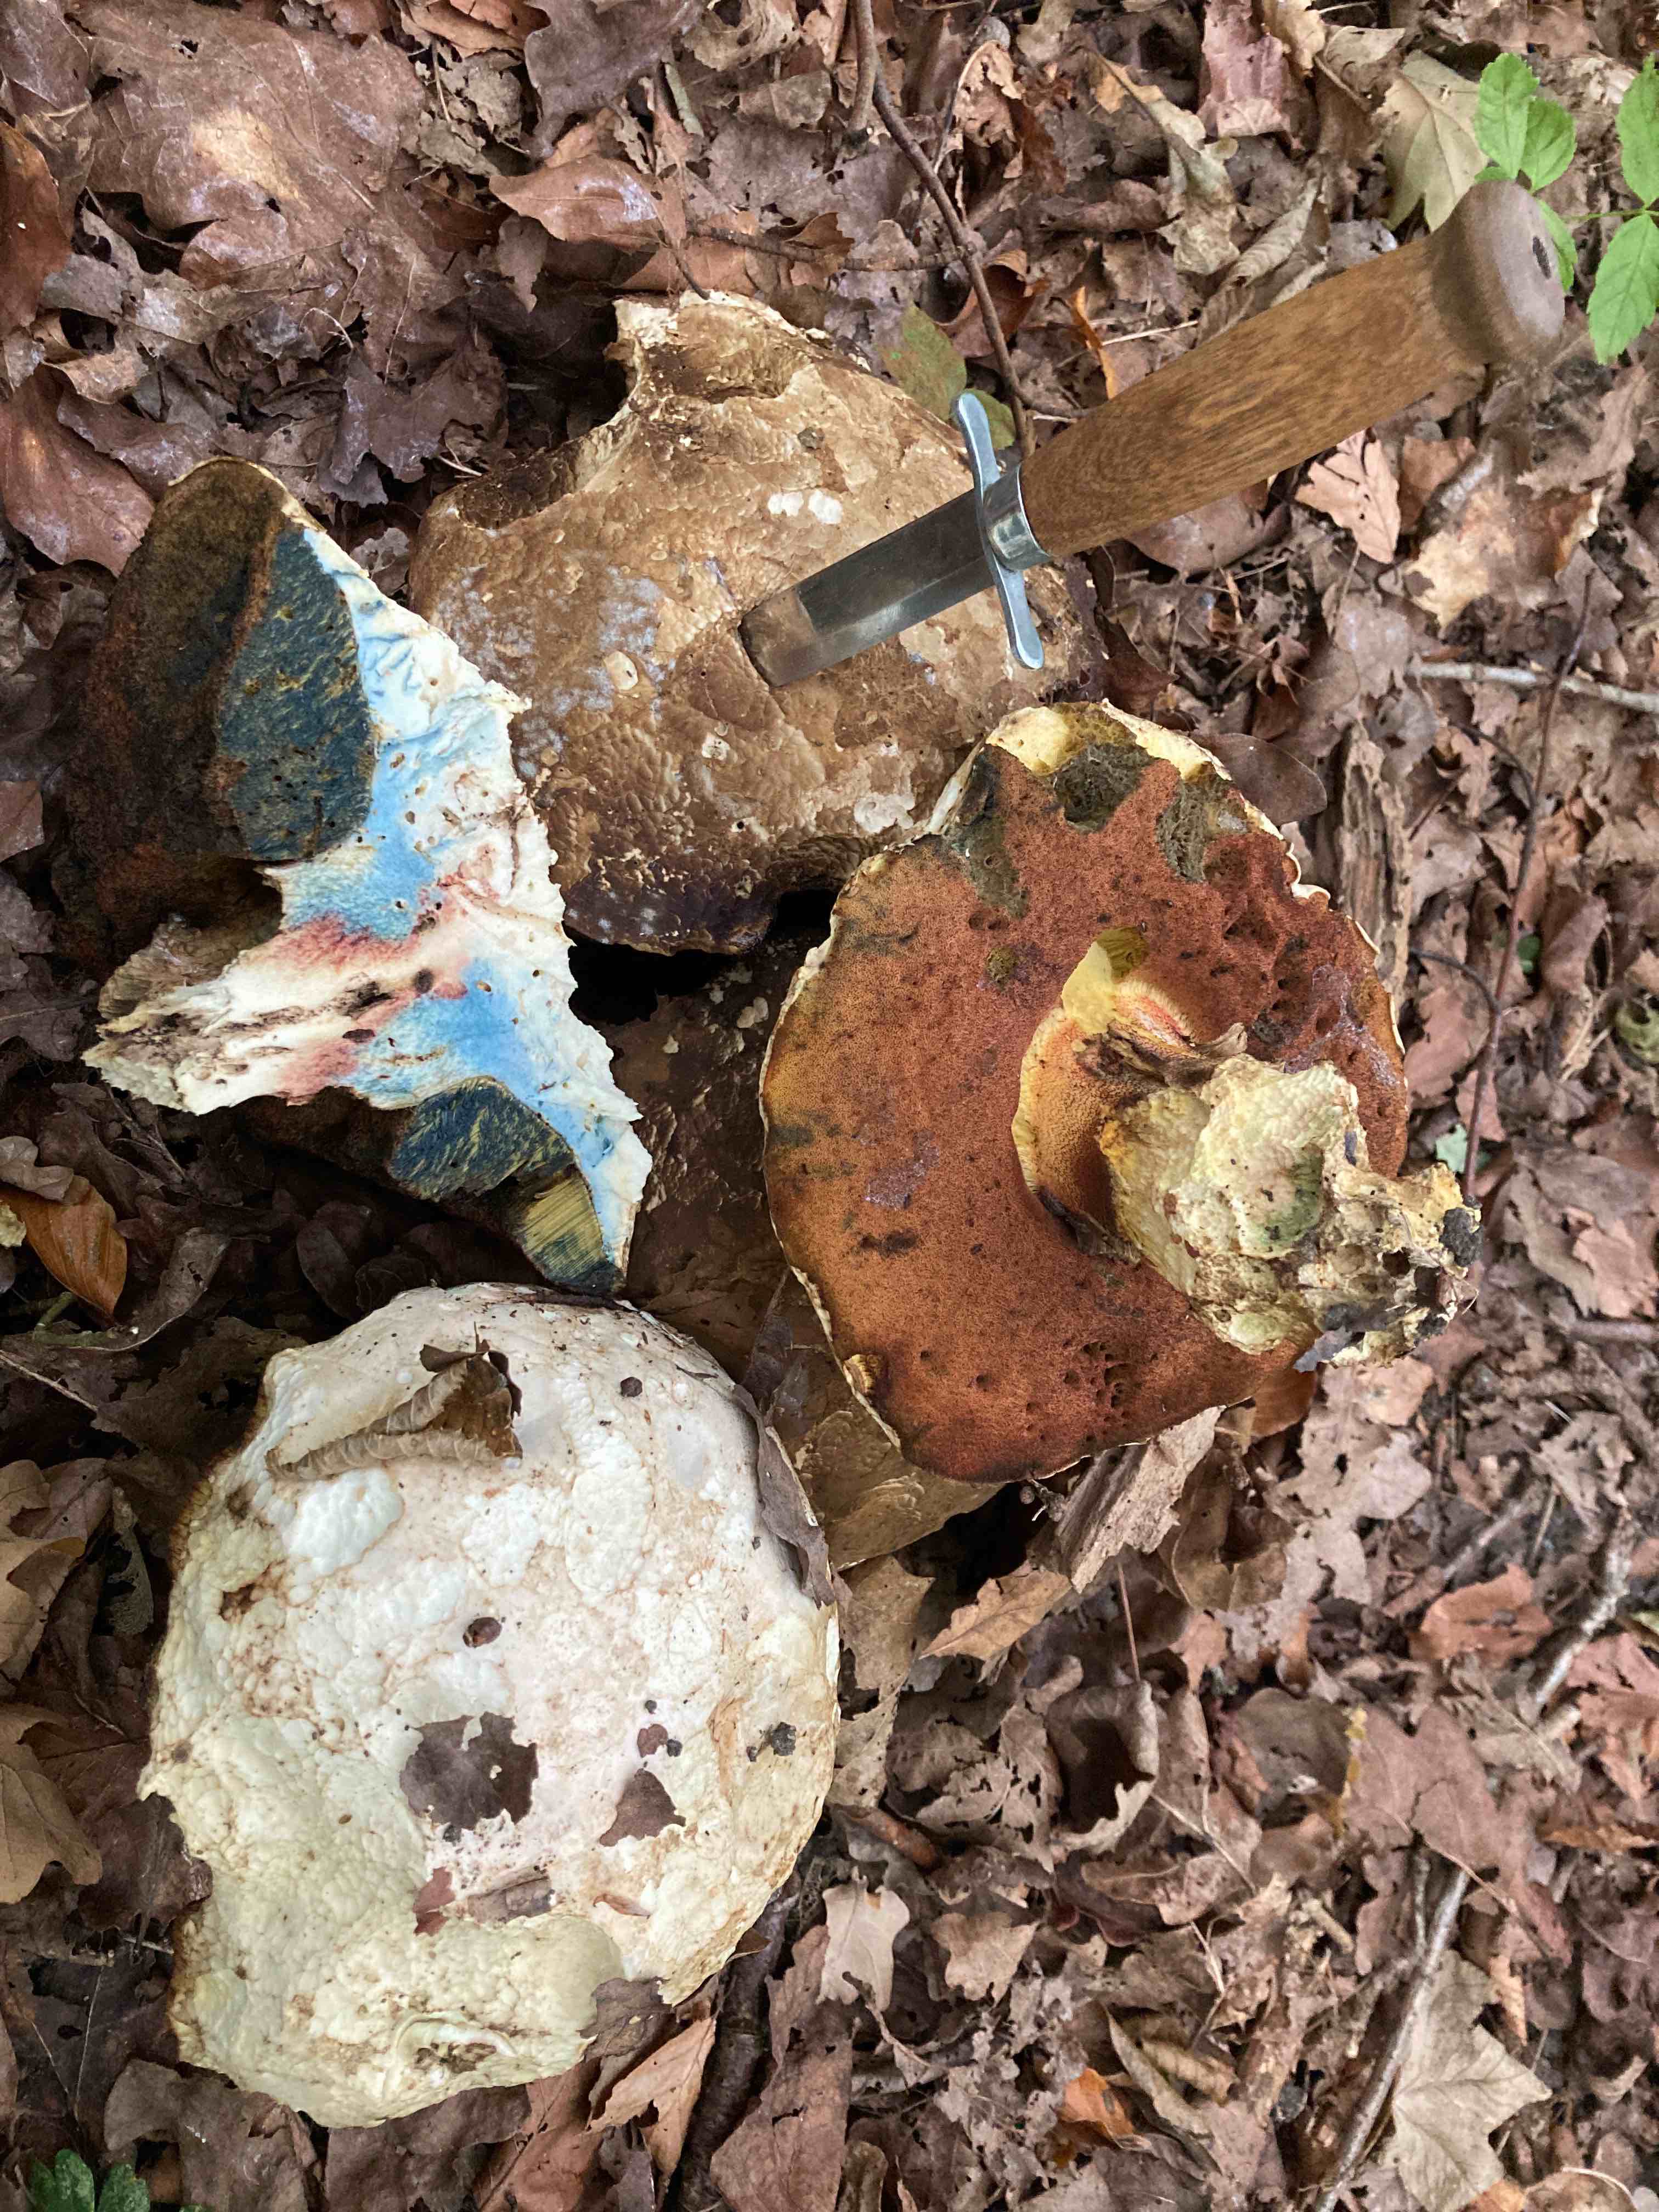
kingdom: Fungi
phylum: Basidiomycota
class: Agaricomycetes
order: Boletales
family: Boletaceae
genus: Rubroboletus
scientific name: Rubroboletus satanas
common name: Satans rørhat
